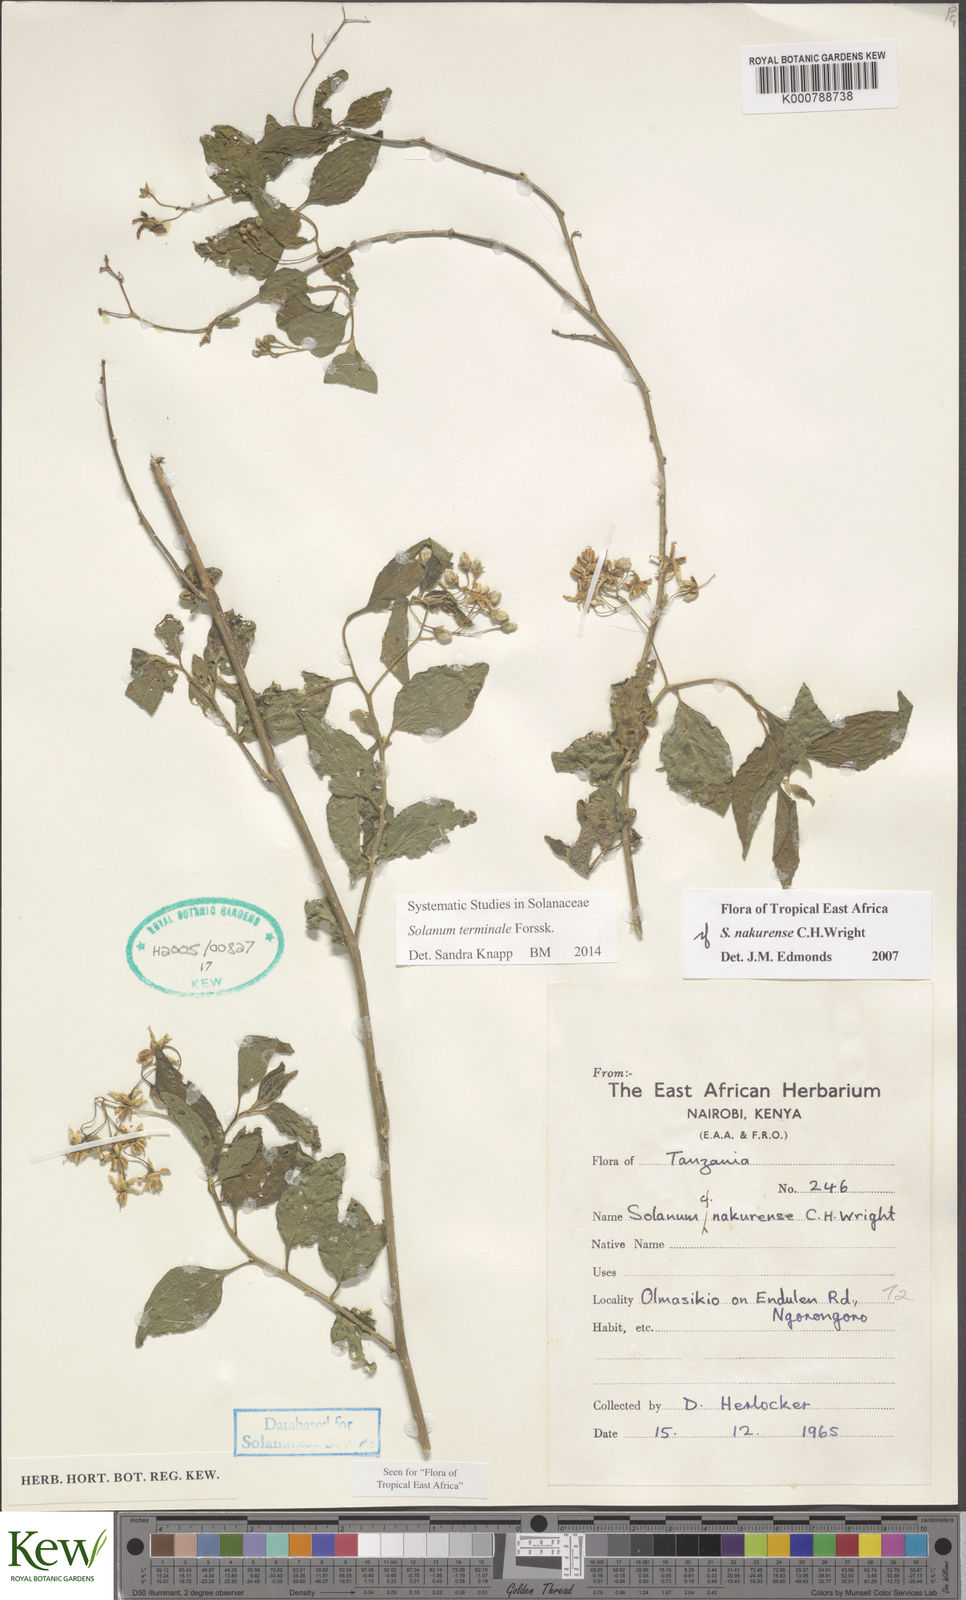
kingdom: Plantae
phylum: Tracheophyta
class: Magnoliopsida
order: Solanales
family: Solanaceae
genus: Solanum
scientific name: Solanum terminale
